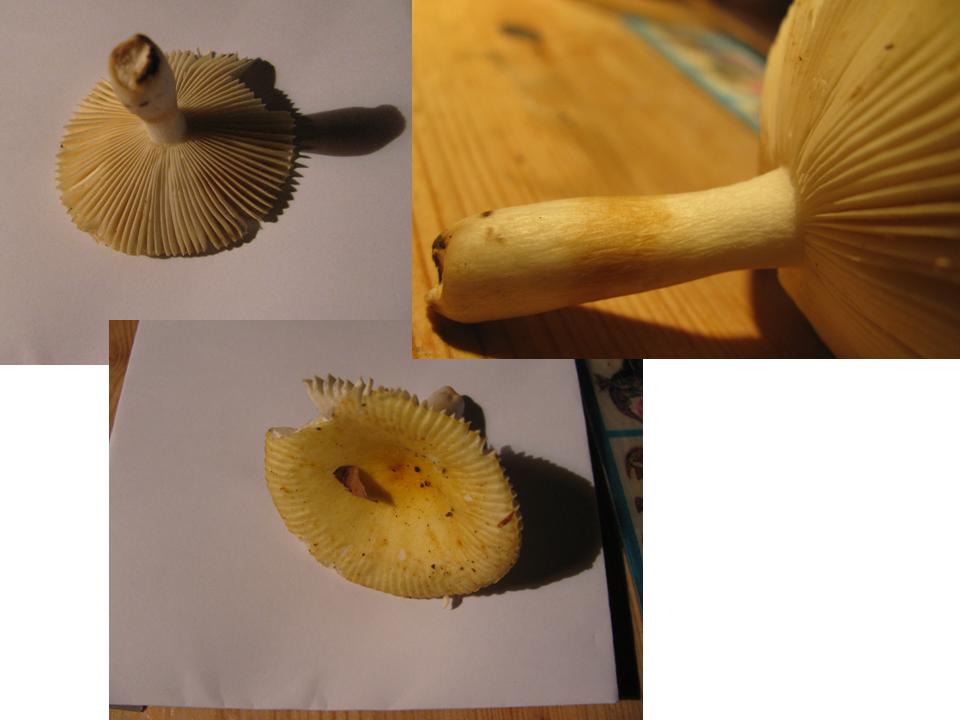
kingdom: Fungi
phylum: Basidiomycota
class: Agaricomycetes
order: Russulales
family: Russulaceae
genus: Russula
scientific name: Russula solaris
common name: sol-skørhat
